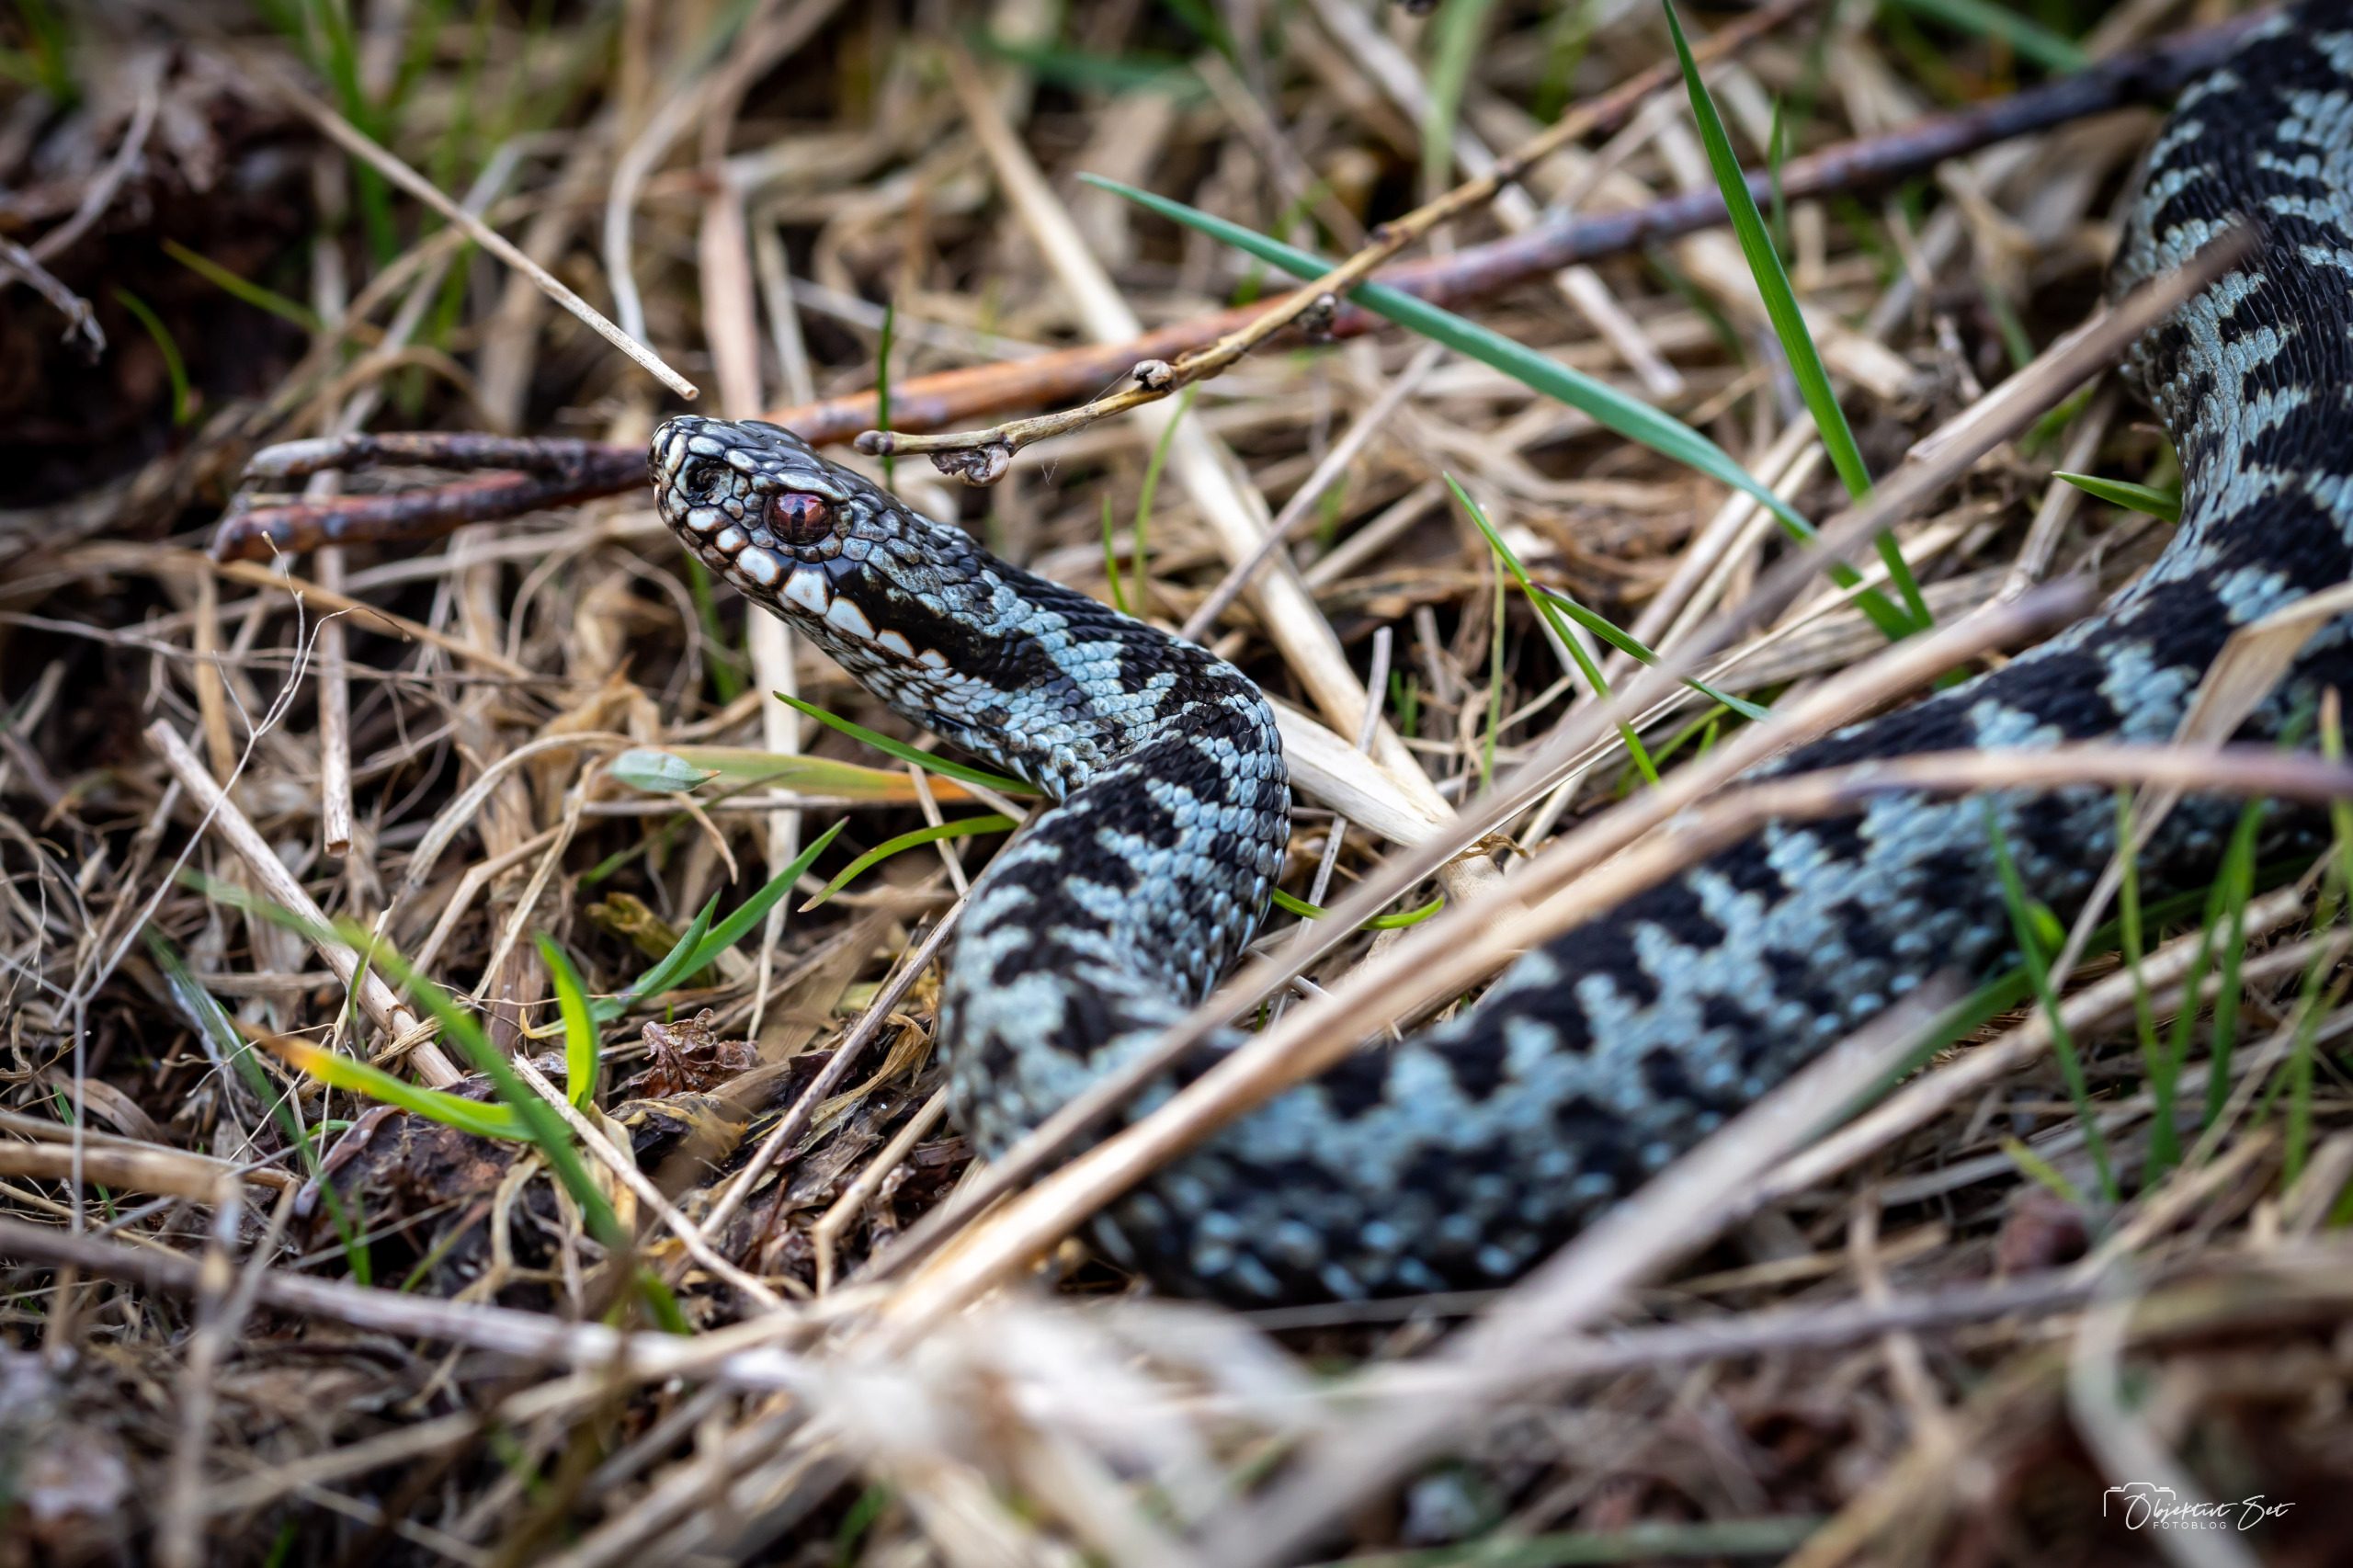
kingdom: Animalia
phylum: Chordata
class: Squamata
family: Viperidae
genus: Vipera
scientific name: Vipera berus
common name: Hugorm
